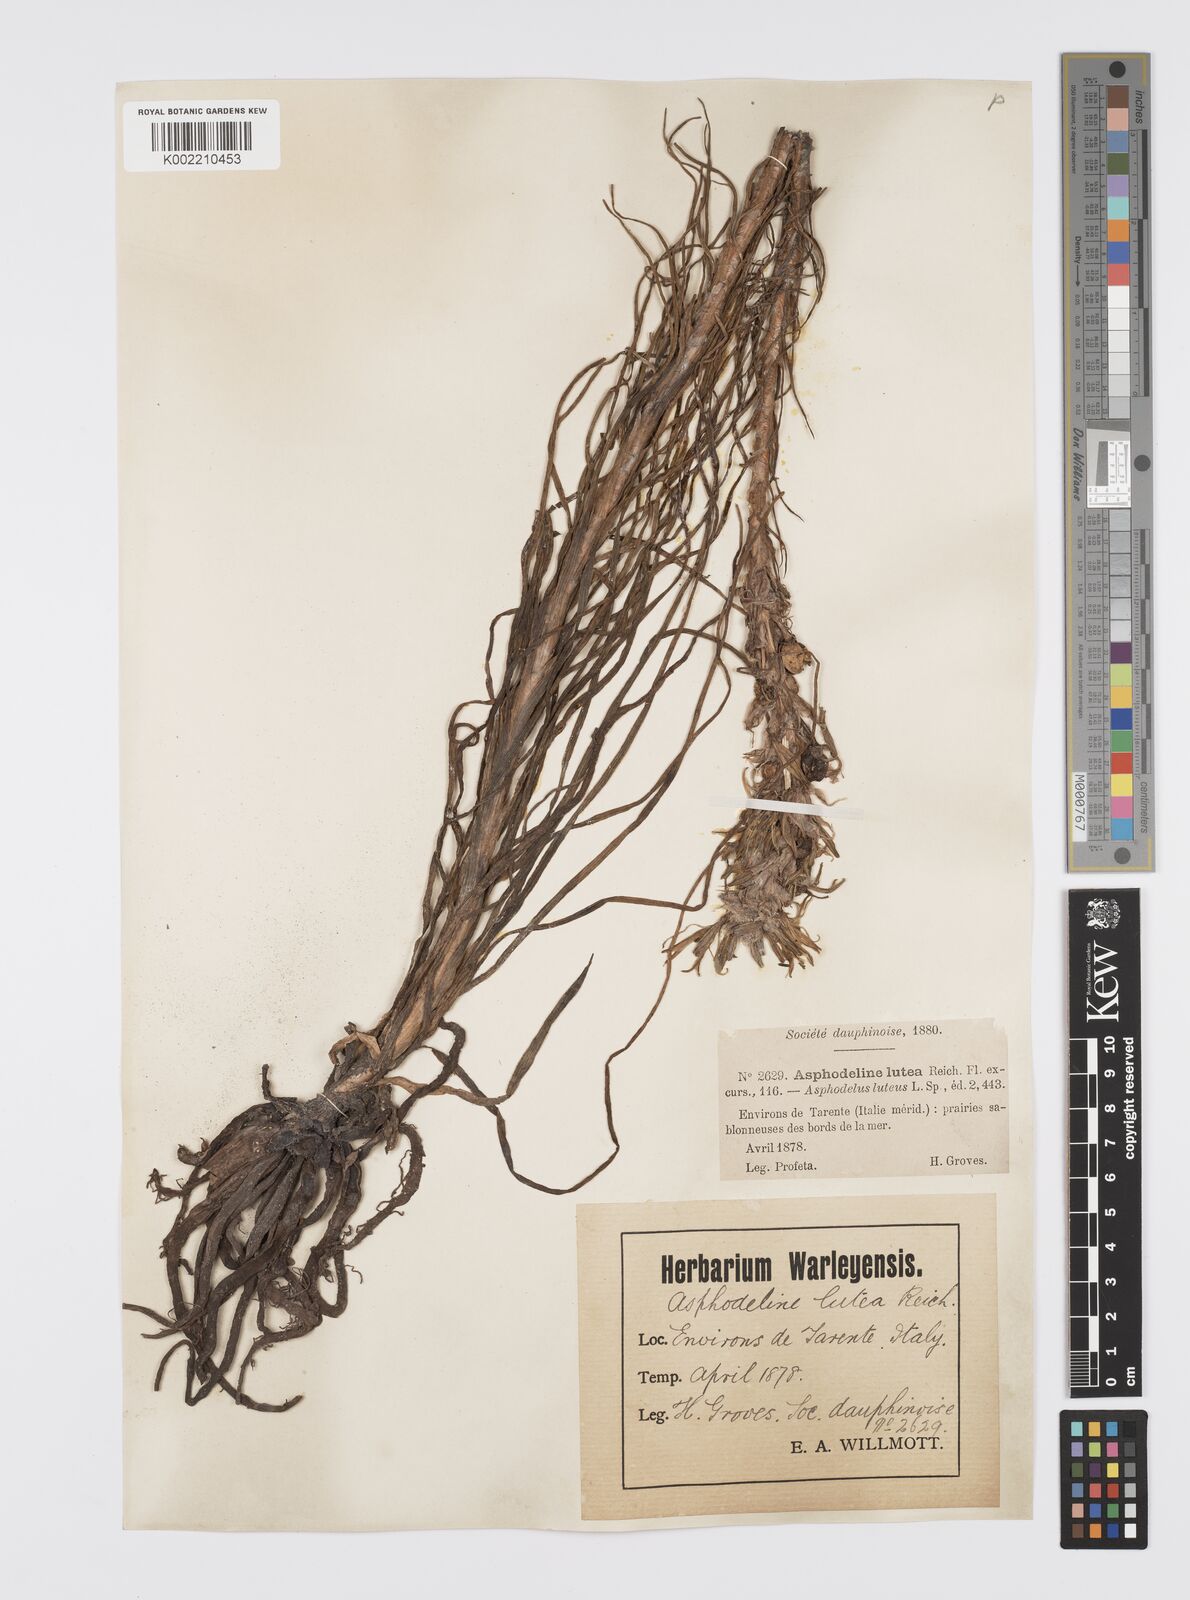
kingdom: Plantae
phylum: Tracheophyta
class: Liliopsida
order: Asparagales
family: Asphodelaceae
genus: Asphodeline
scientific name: Asphodeline lutea
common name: Yellow asphodel
